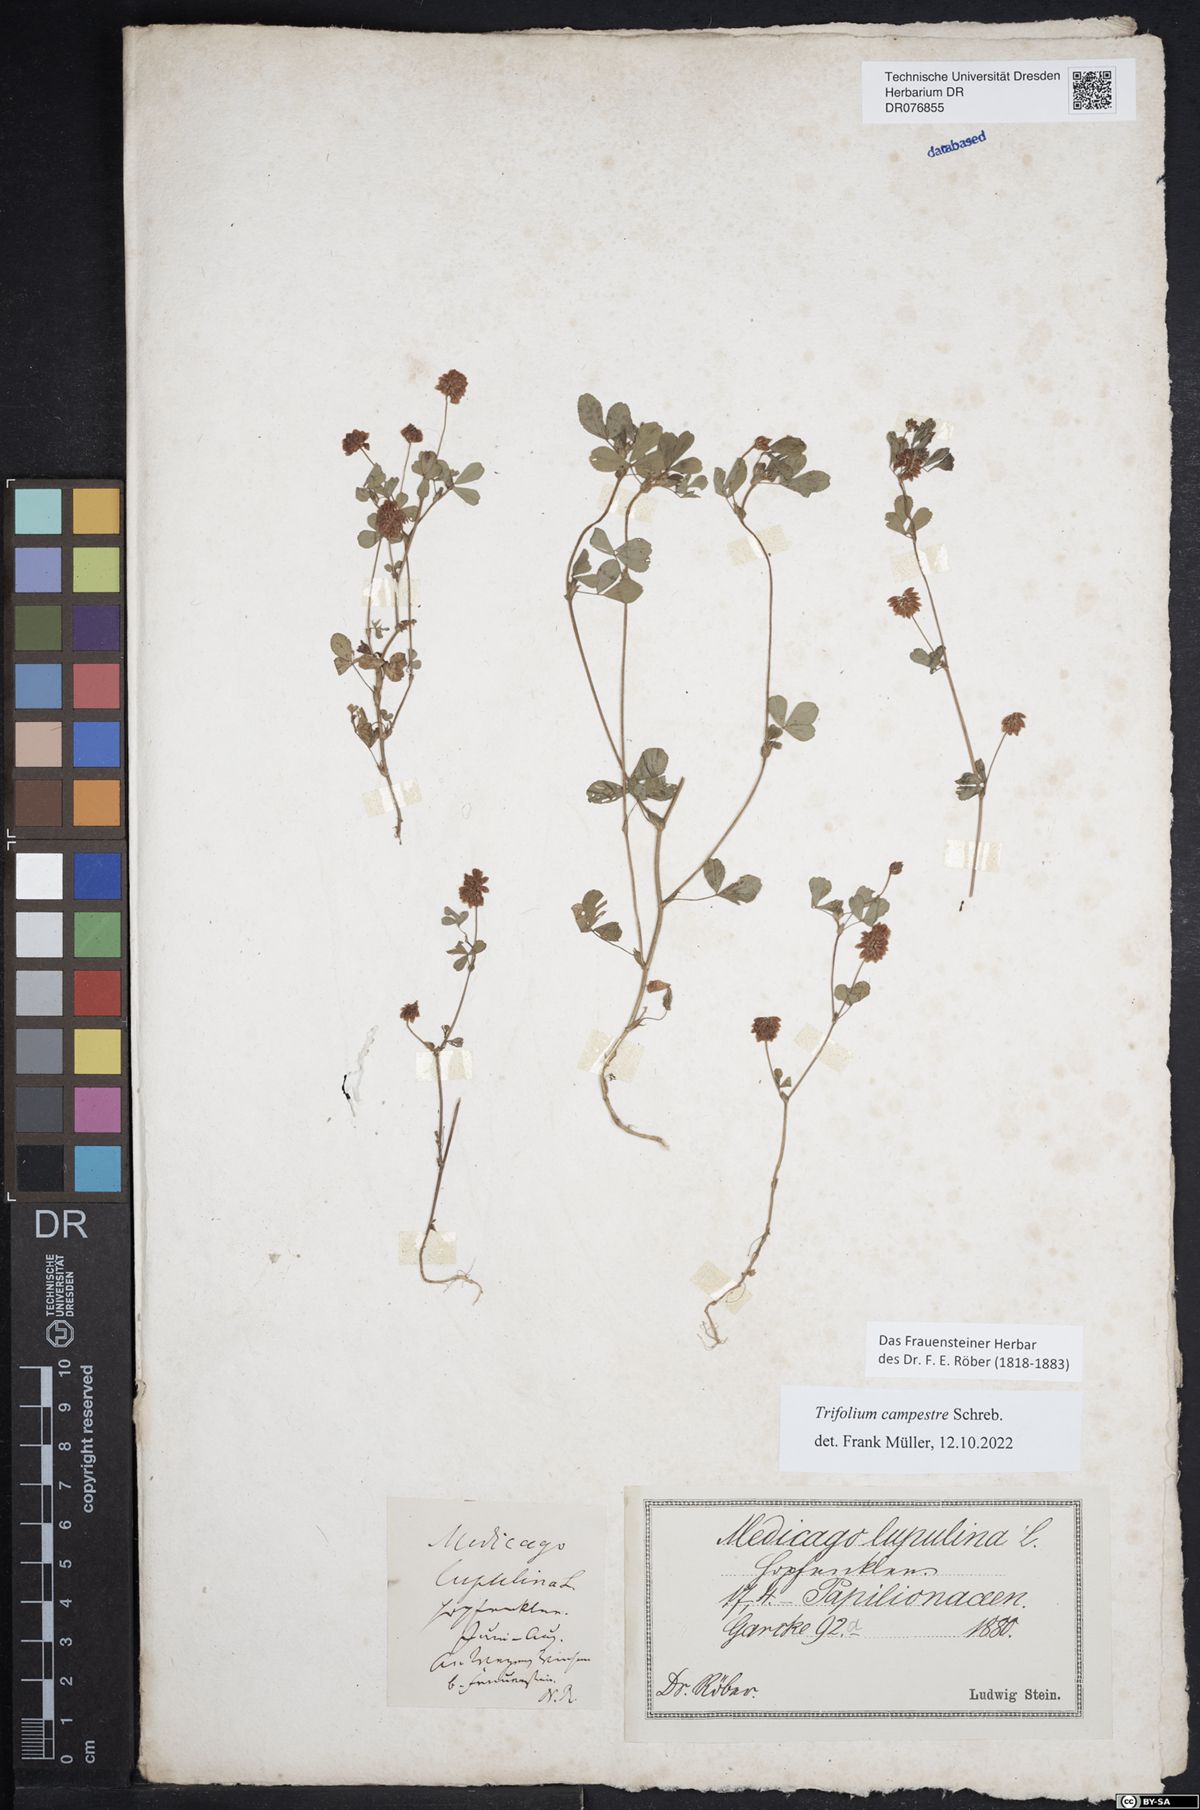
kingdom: Plantae
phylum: Tracheophyta
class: Magnoliopsida
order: Fabales
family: Fabaceae
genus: Medicago
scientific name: Medicago lupulina
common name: Black medick
